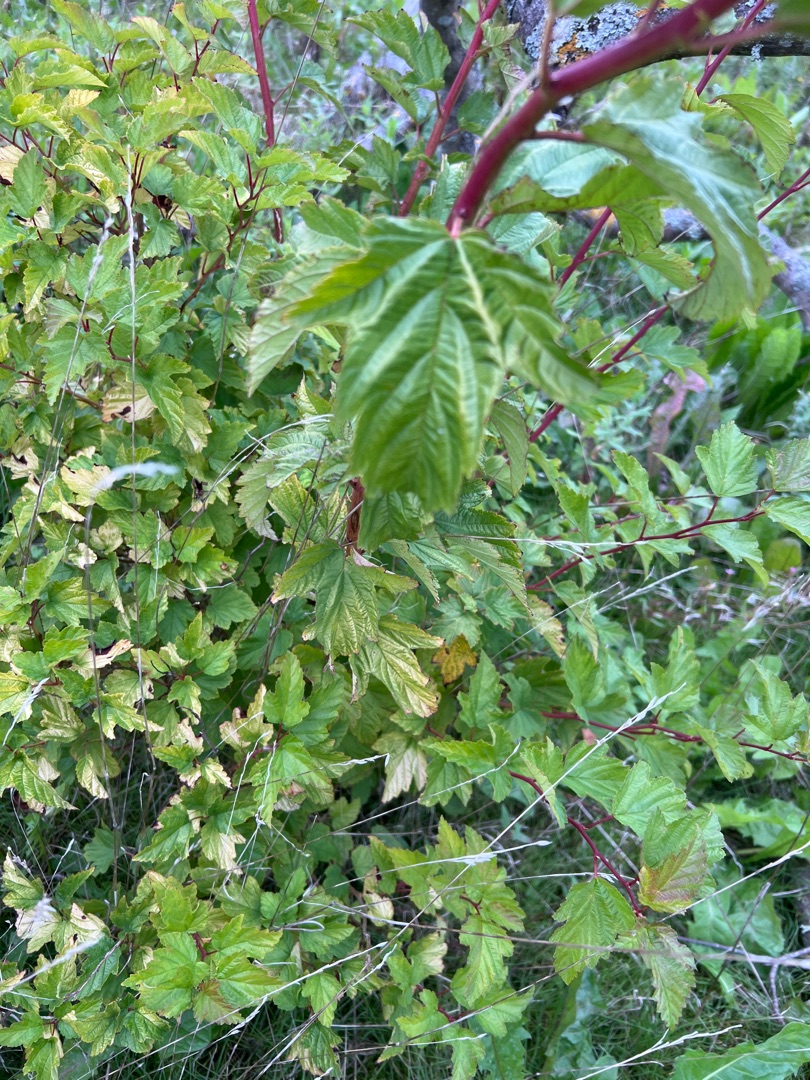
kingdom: Plantae
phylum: Tracheophyta
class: Magnoliopsida
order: Dipsacales
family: Viburnaceae
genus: Viburnum
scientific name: Viburnum opulus
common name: Kvalkved
